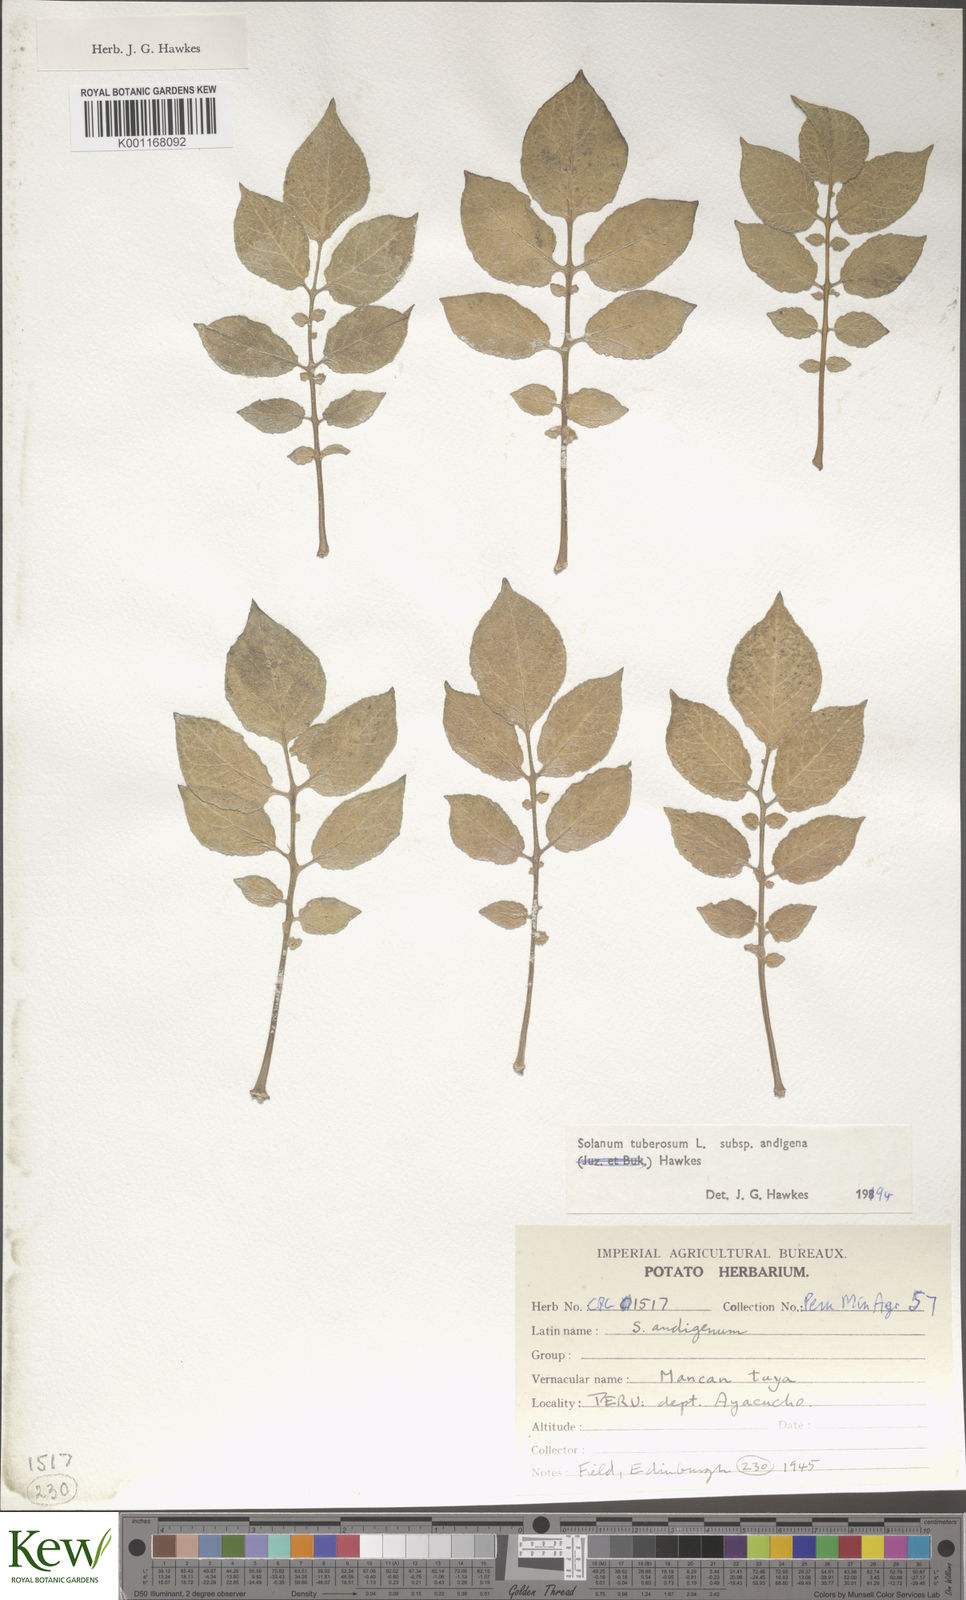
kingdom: Plantae
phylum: Tracheophyta
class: Magnoliopsida
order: Solanales
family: Solanaceae
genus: Solanum
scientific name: Solanum tuberosum
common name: Potato
